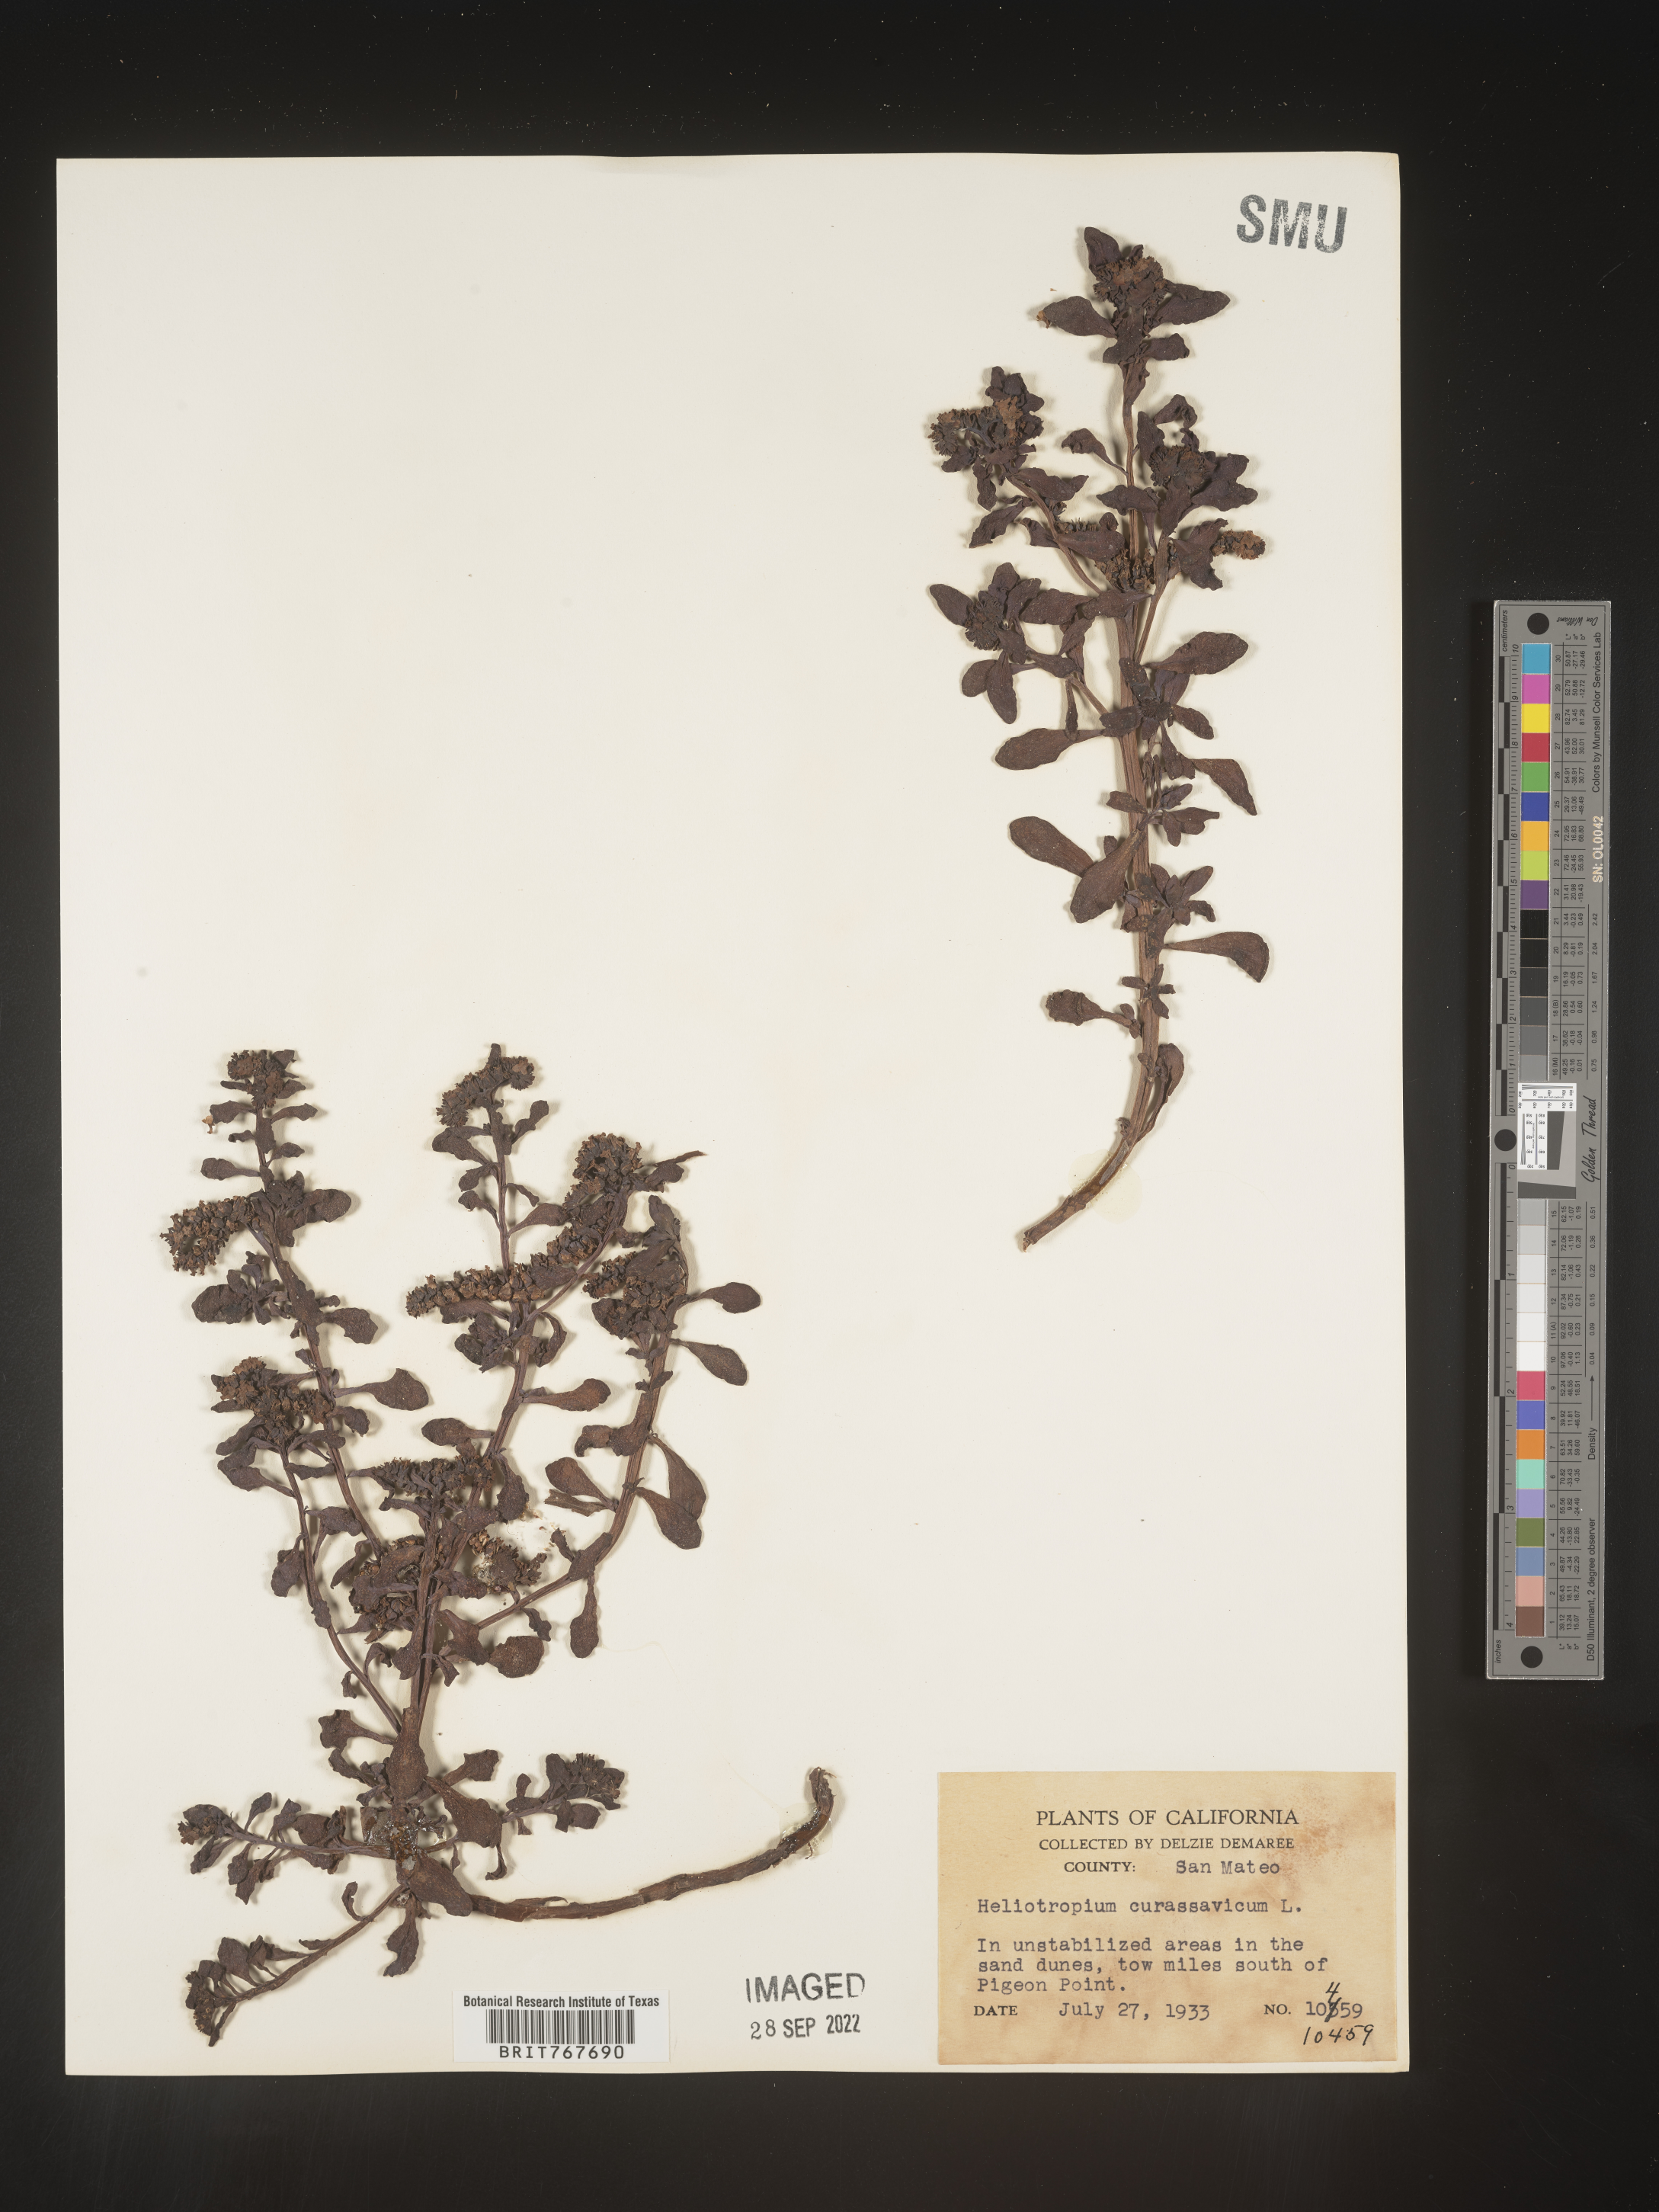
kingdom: Plantae
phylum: Tracheophyta
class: Magnoliopsida
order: Boraginales
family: Heliotropiaceae
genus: Heliotropium
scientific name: Heliotropium curassavicum
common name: Seaside heliotrope
